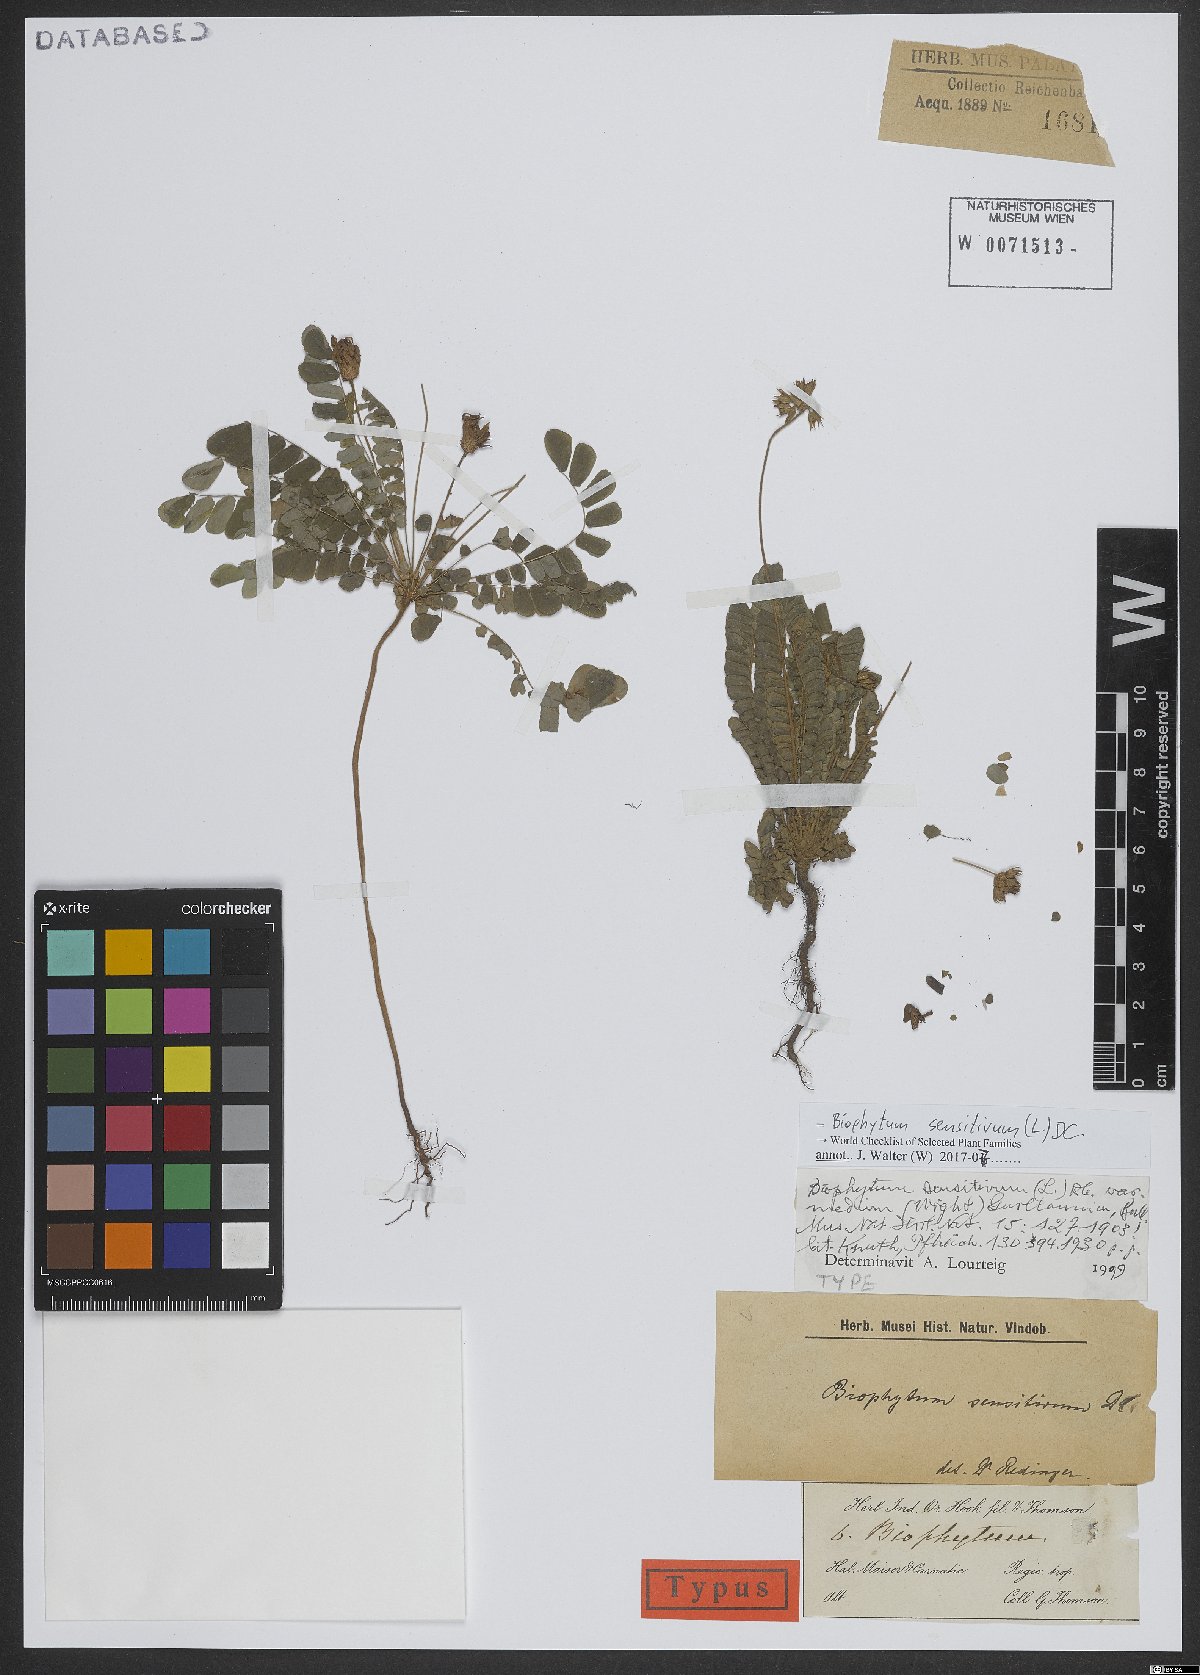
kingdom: Plantae
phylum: Tracheophyta
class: Magnoliopsida
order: Oxalidales
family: Oxalidaceae
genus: Biophytum
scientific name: Biophytum sensitivum
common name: Lifeplant
